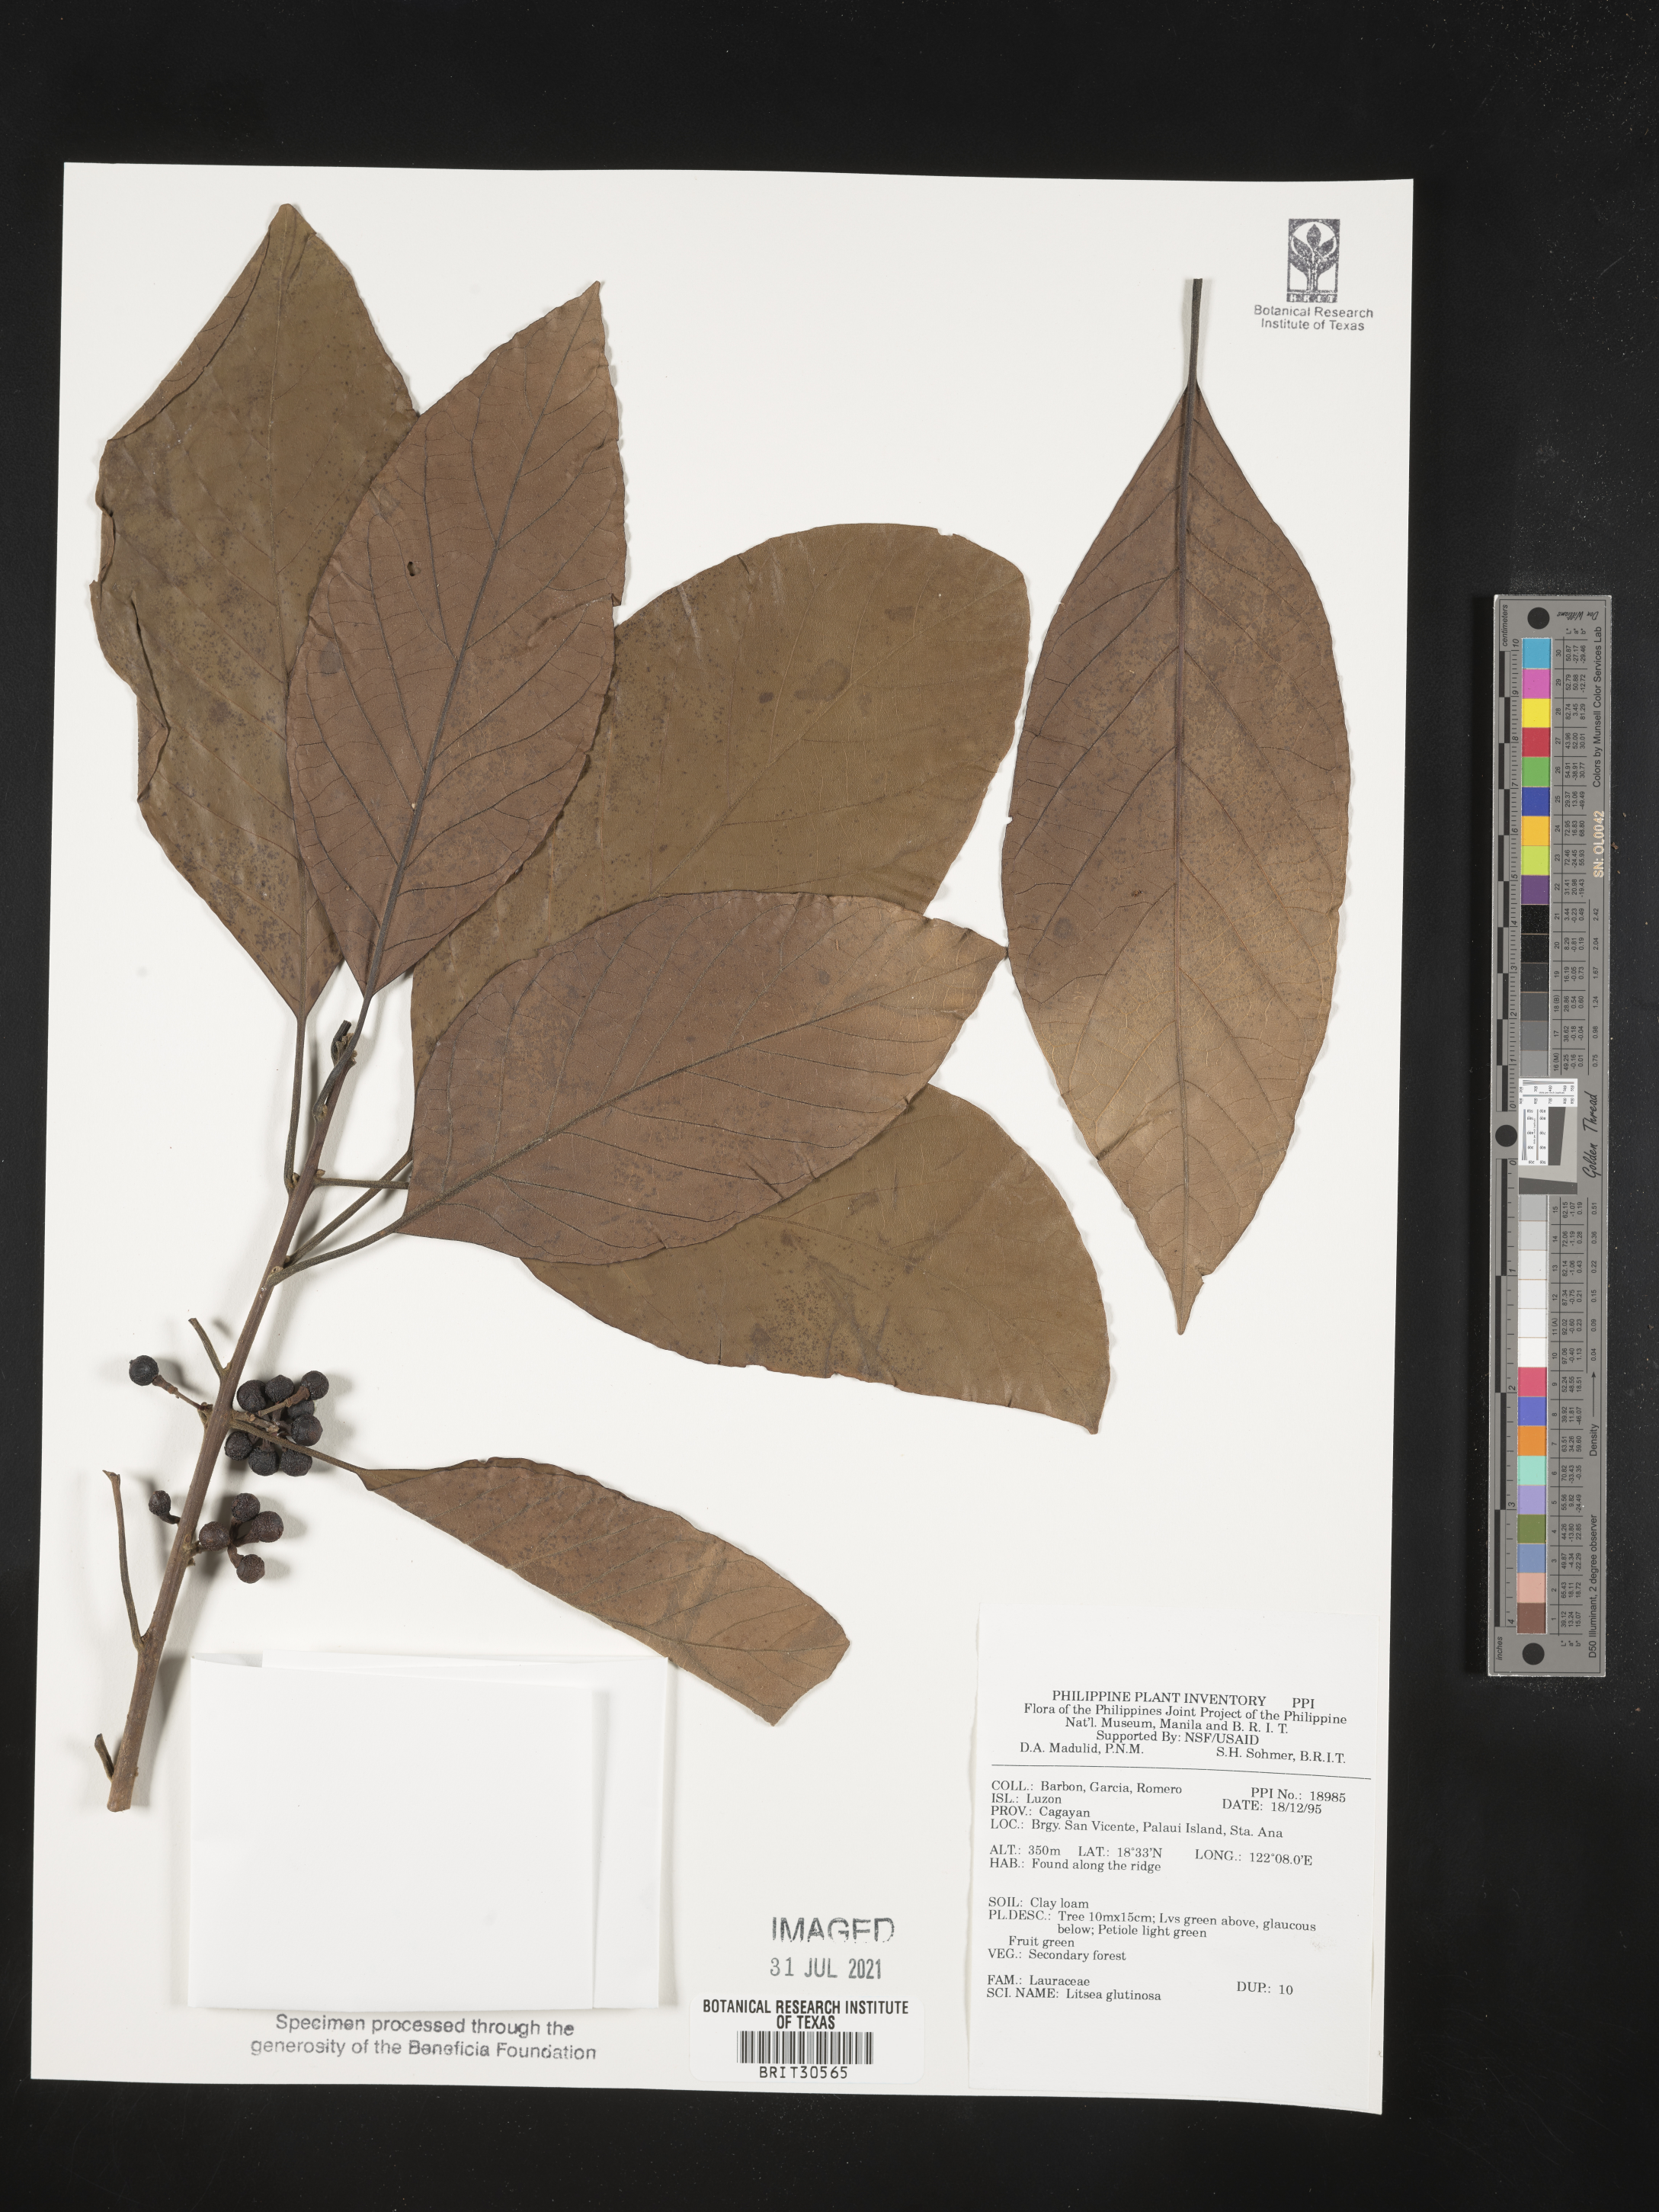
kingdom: Plantae
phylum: Tracheophyta
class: Magnoliopsida
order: Laurales
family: Lauraceae
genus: Litsea
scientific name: Litsea glutinosa
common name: Indian-laurel
